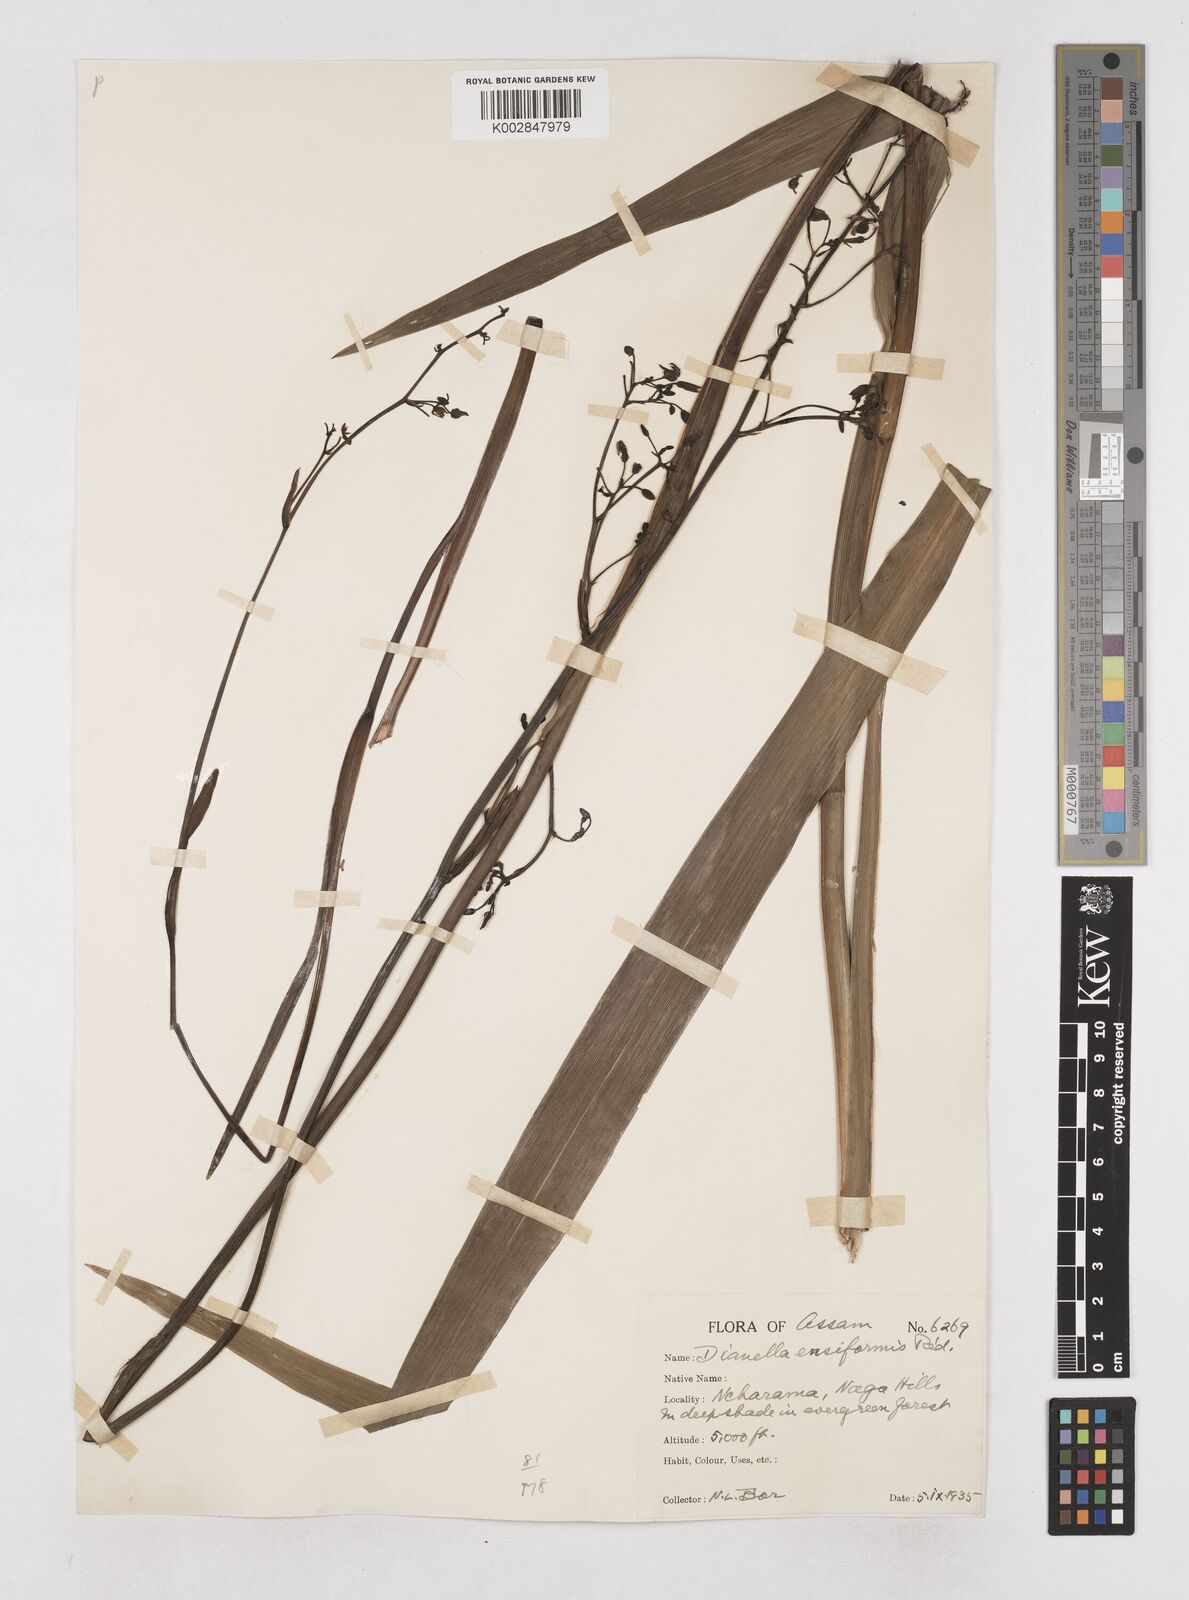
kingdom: Plantae
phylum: Tracheophyta
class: Liliopsida
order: Asparagales
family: Asphodelaceae
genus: Dianella
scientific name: Dianella ensifolia
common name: New zealand lilyplant
